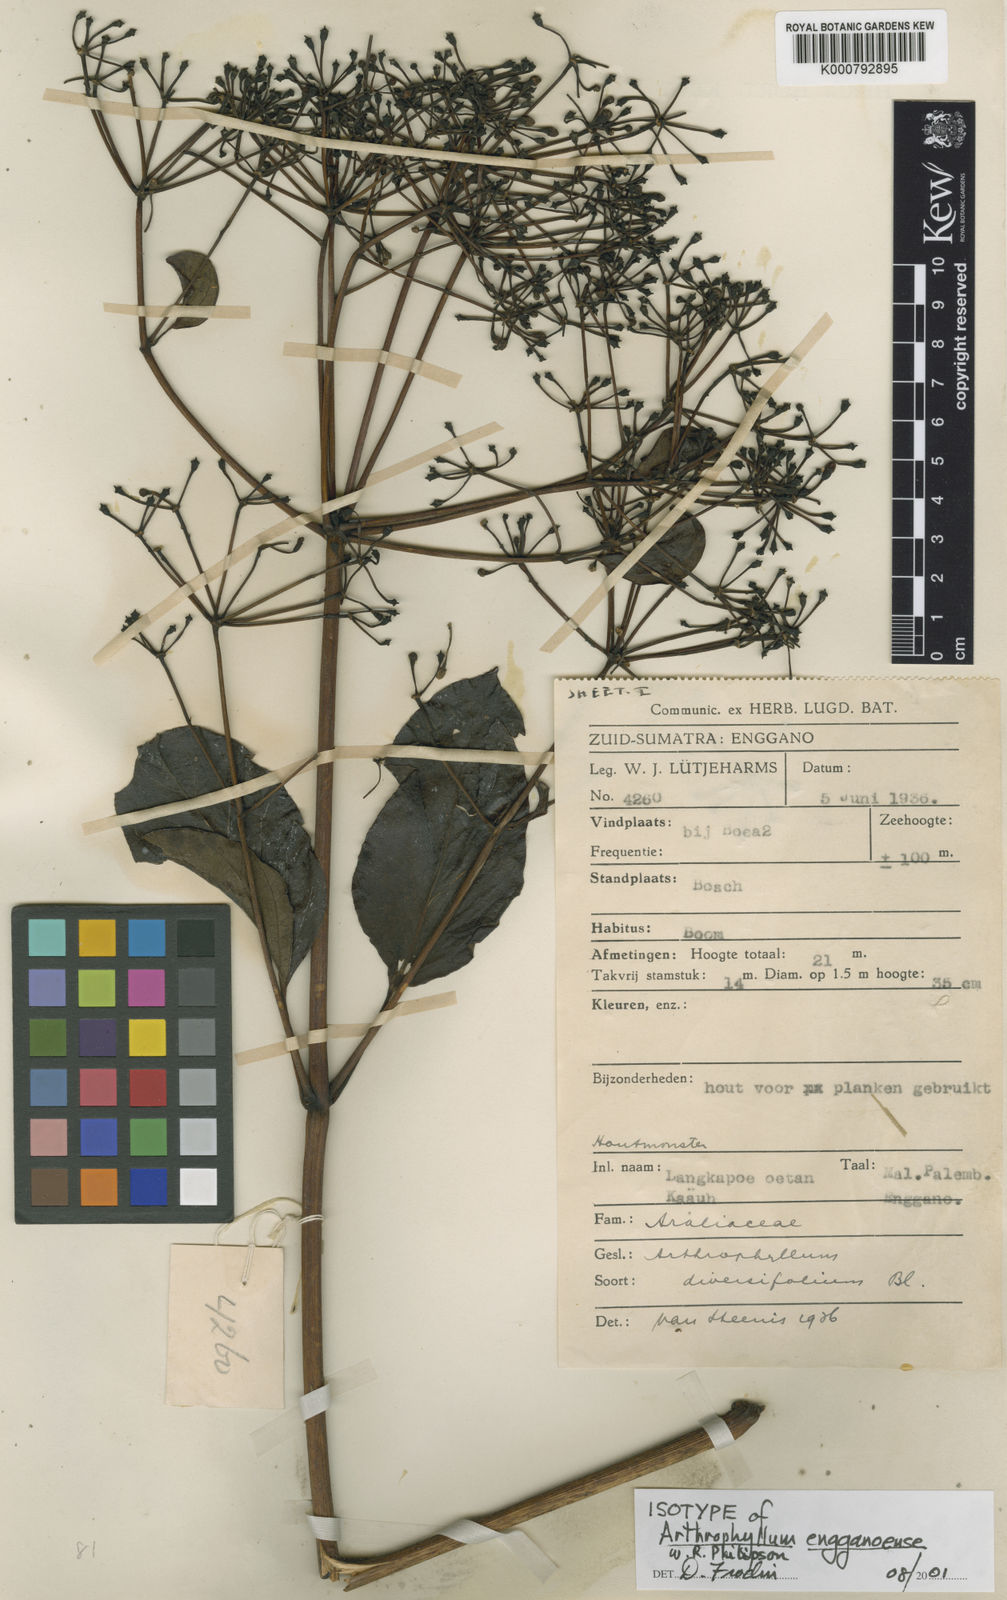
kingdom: Plantae
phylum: Tracheophyta
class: Magnoliopsida
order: Apiales
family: Araliaceae
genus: Polyscias
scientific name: Polyscias engganoense
